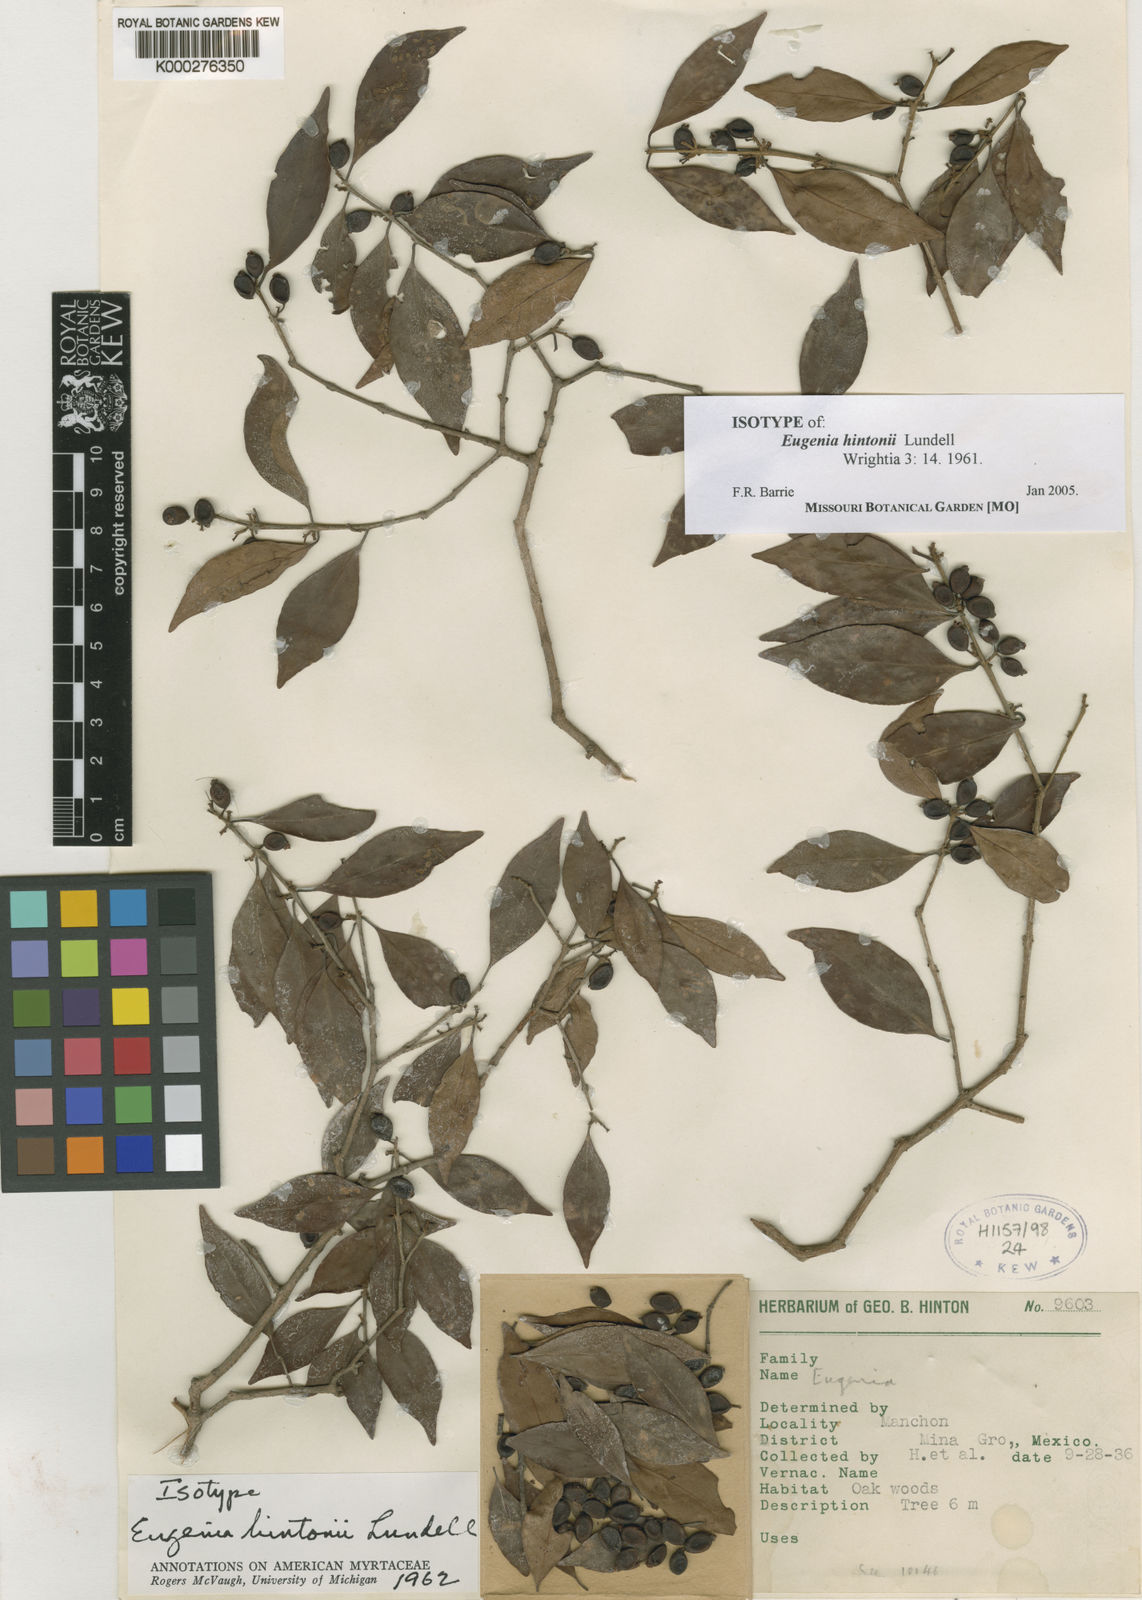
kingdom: Plantae
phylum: Tracheophyta
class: Magnoliopsida
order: Myrtales
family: Myrtaceae
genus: Eugenia
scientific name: Eugenia crenularis
